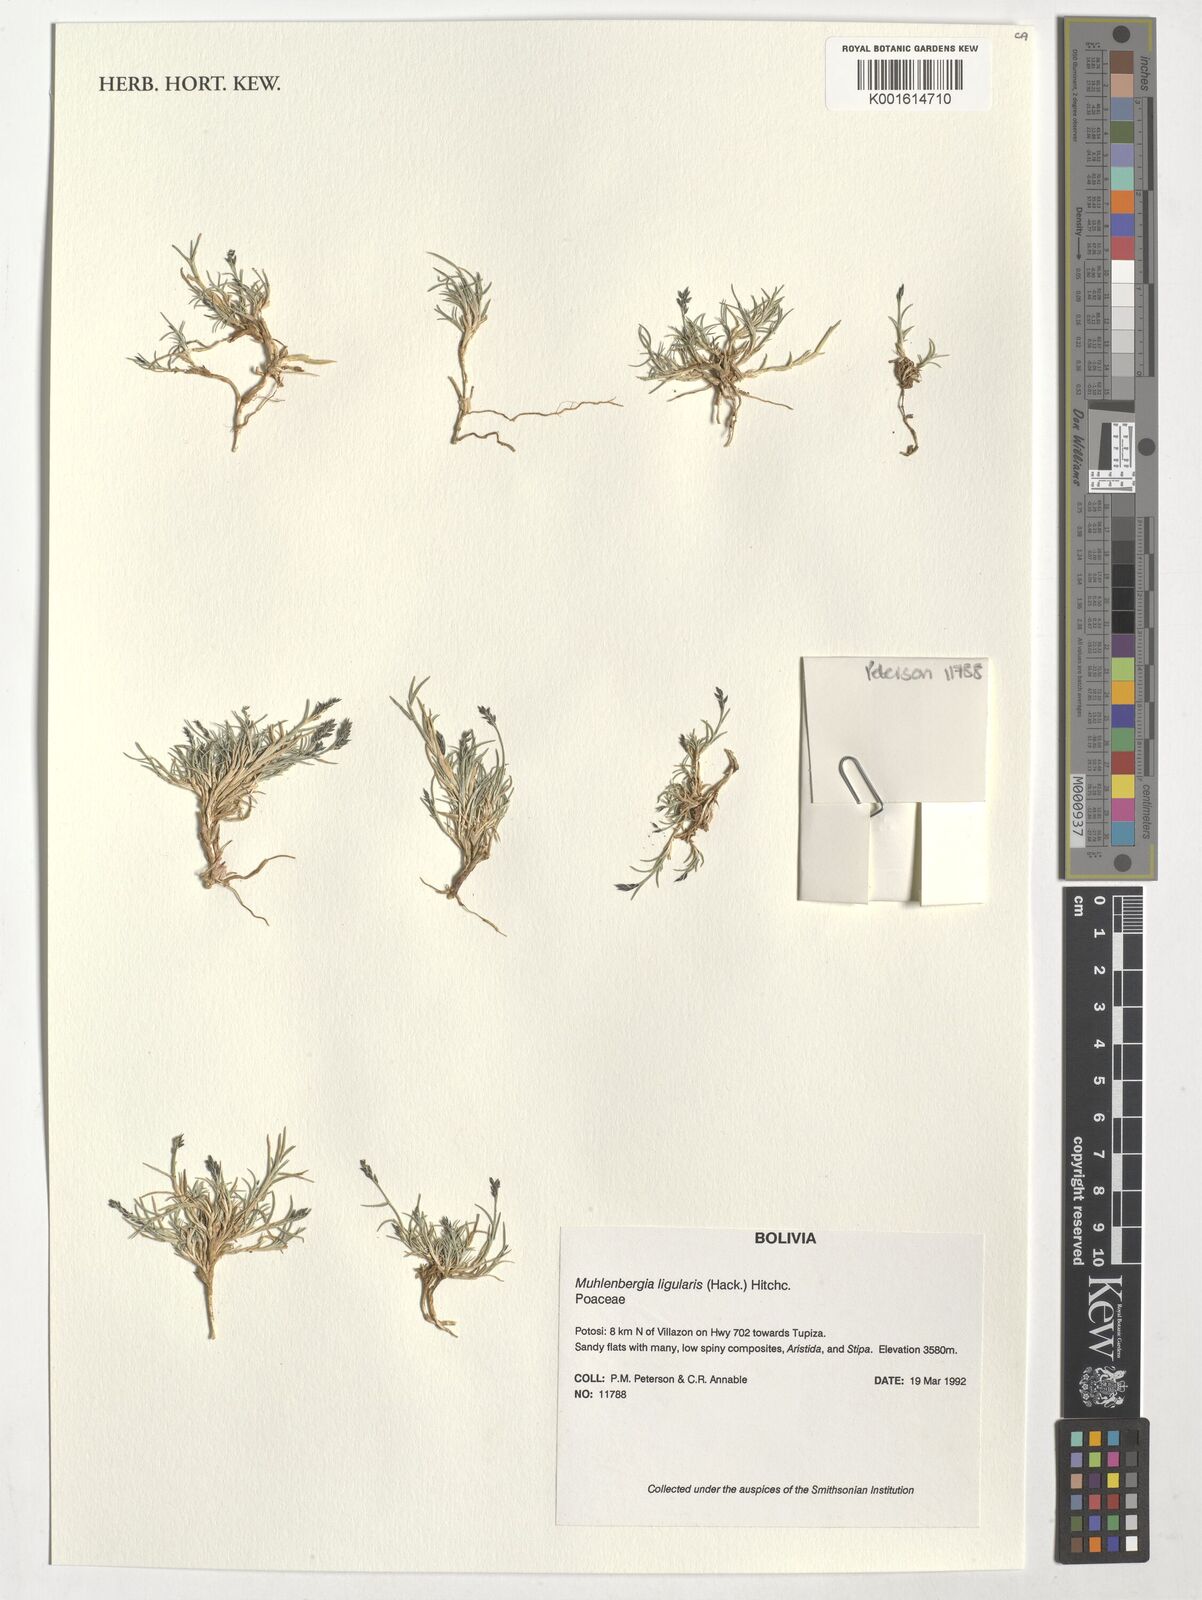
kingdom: Plantae
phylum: Tracheophyta
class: Liliopsida
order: Poales
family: Poaceae
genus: Muhlenbergia
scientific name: Muhlenbergia ligularis
